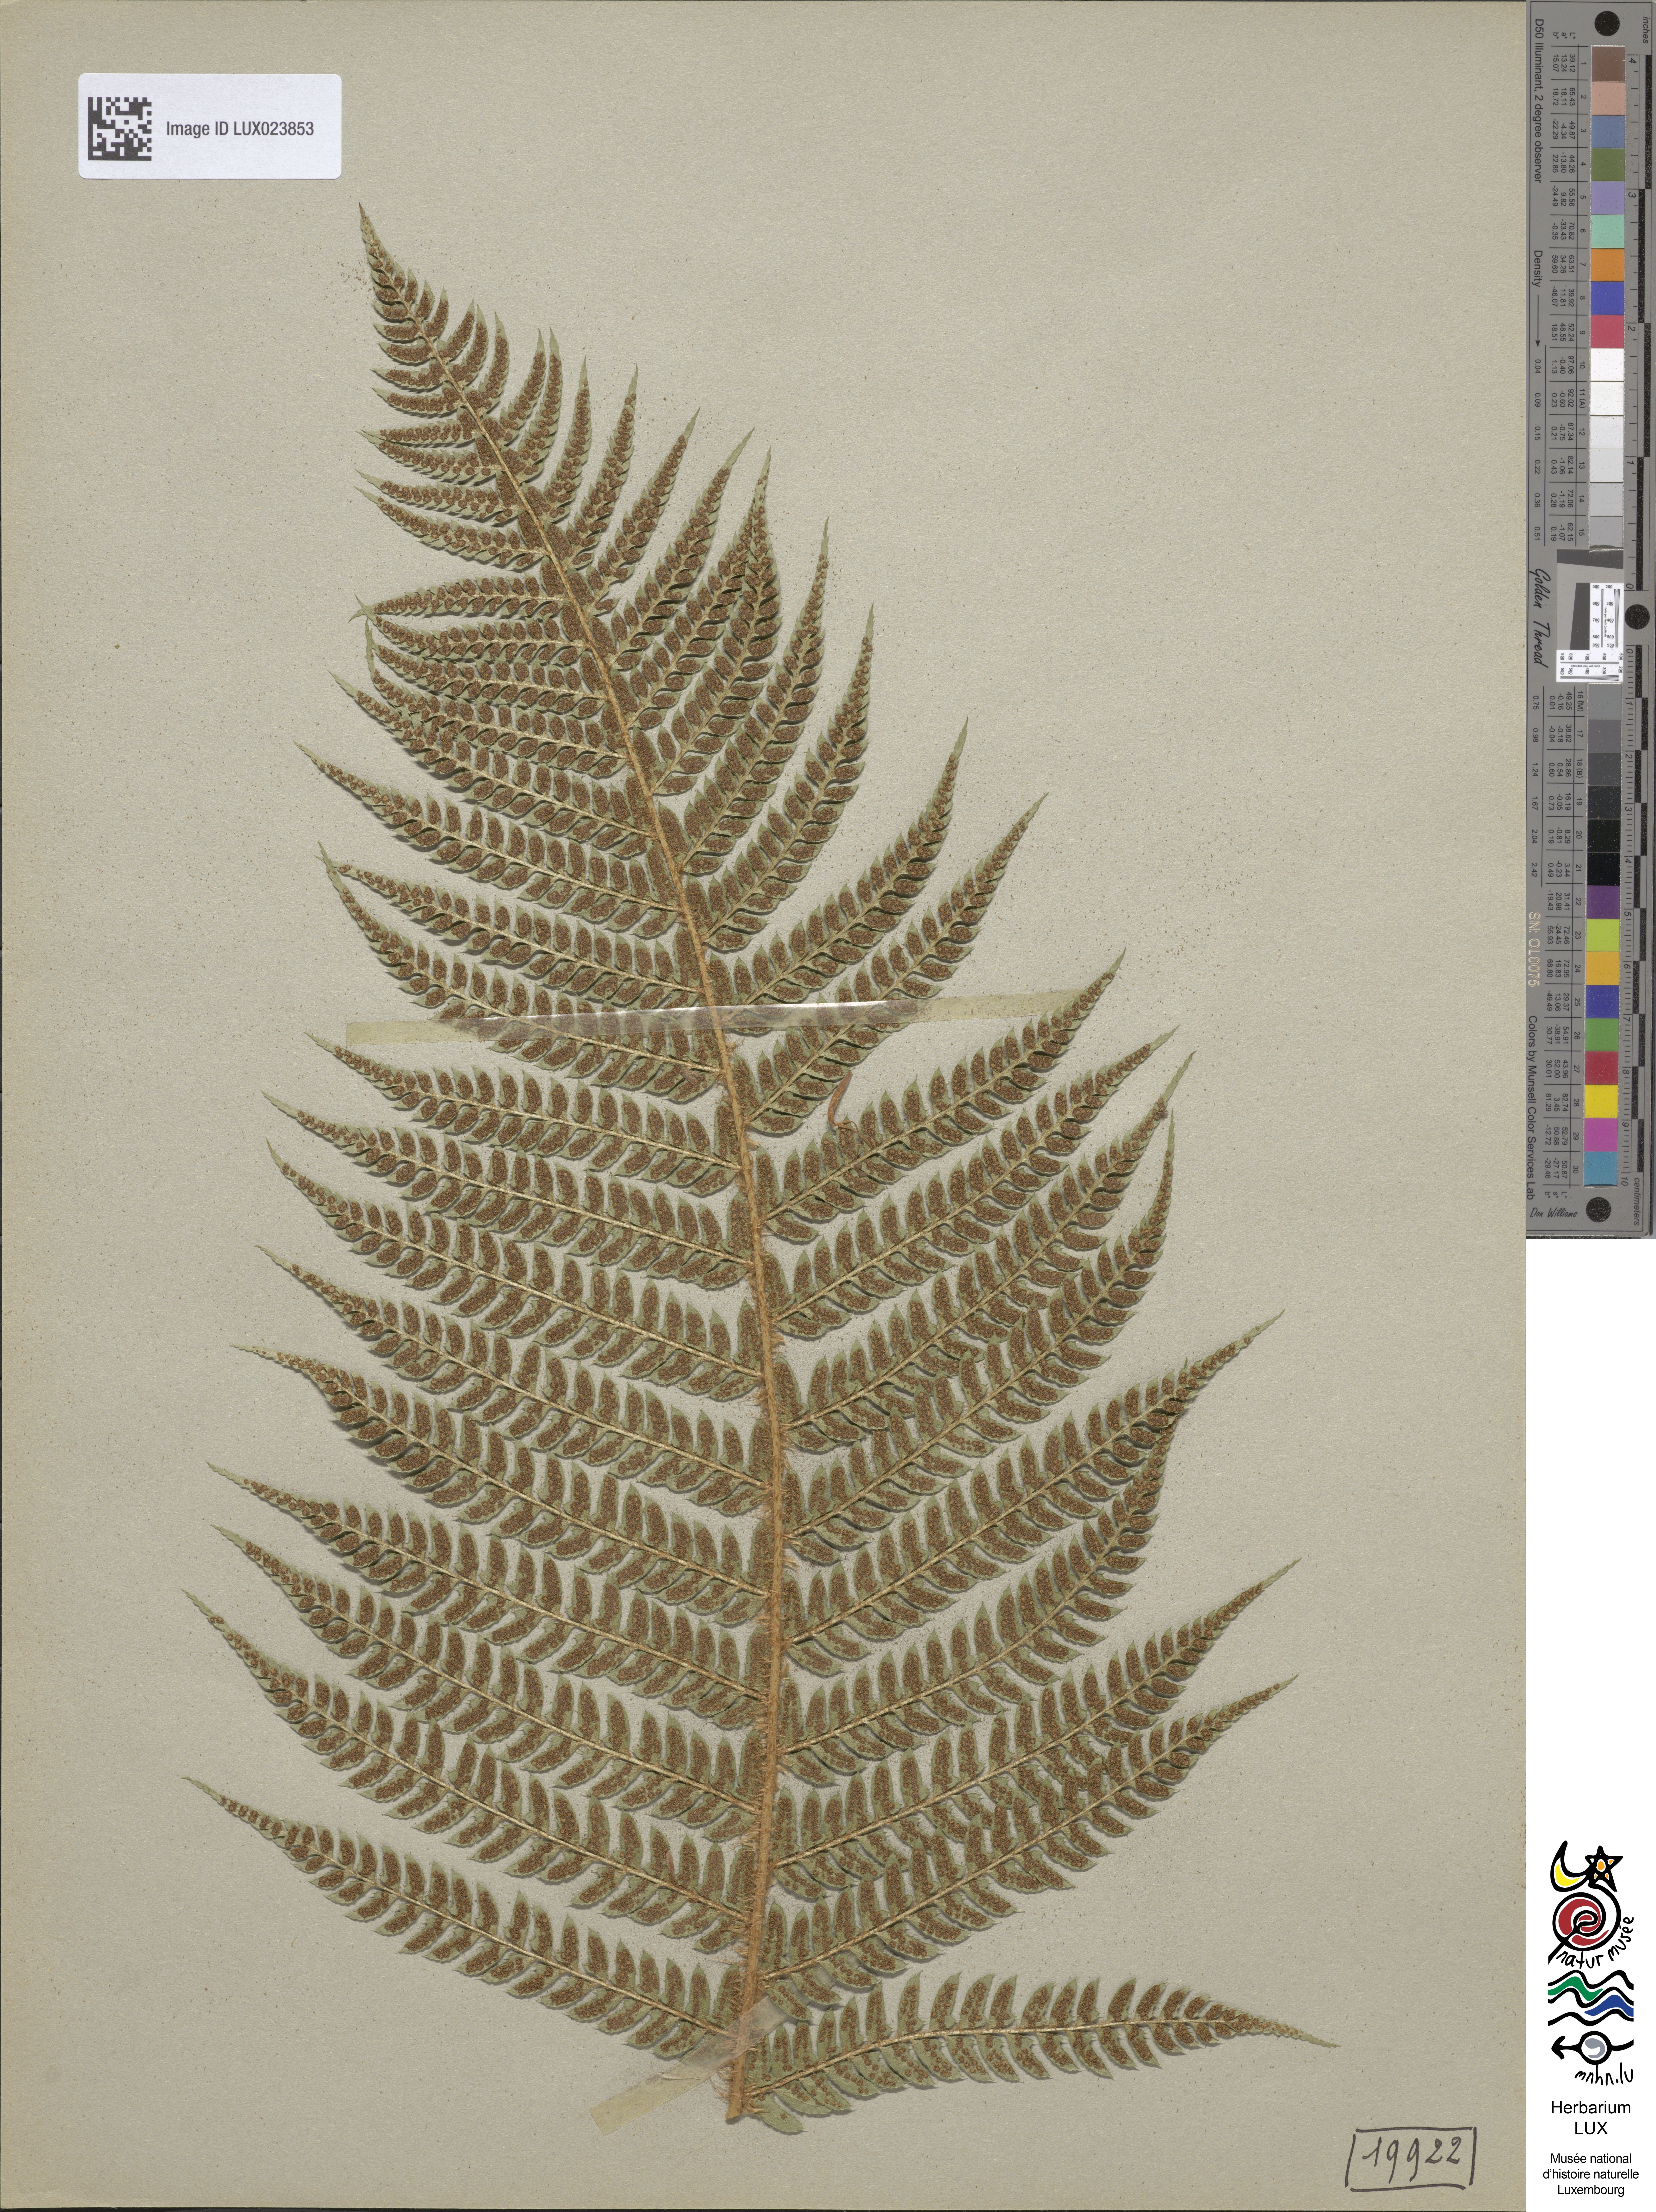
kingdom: Plantae
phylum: Tracheophyta
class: Polypodiopsida
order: Polypodiales
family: Dryopteridaceae
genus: Polystichum
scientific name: Polystichum
